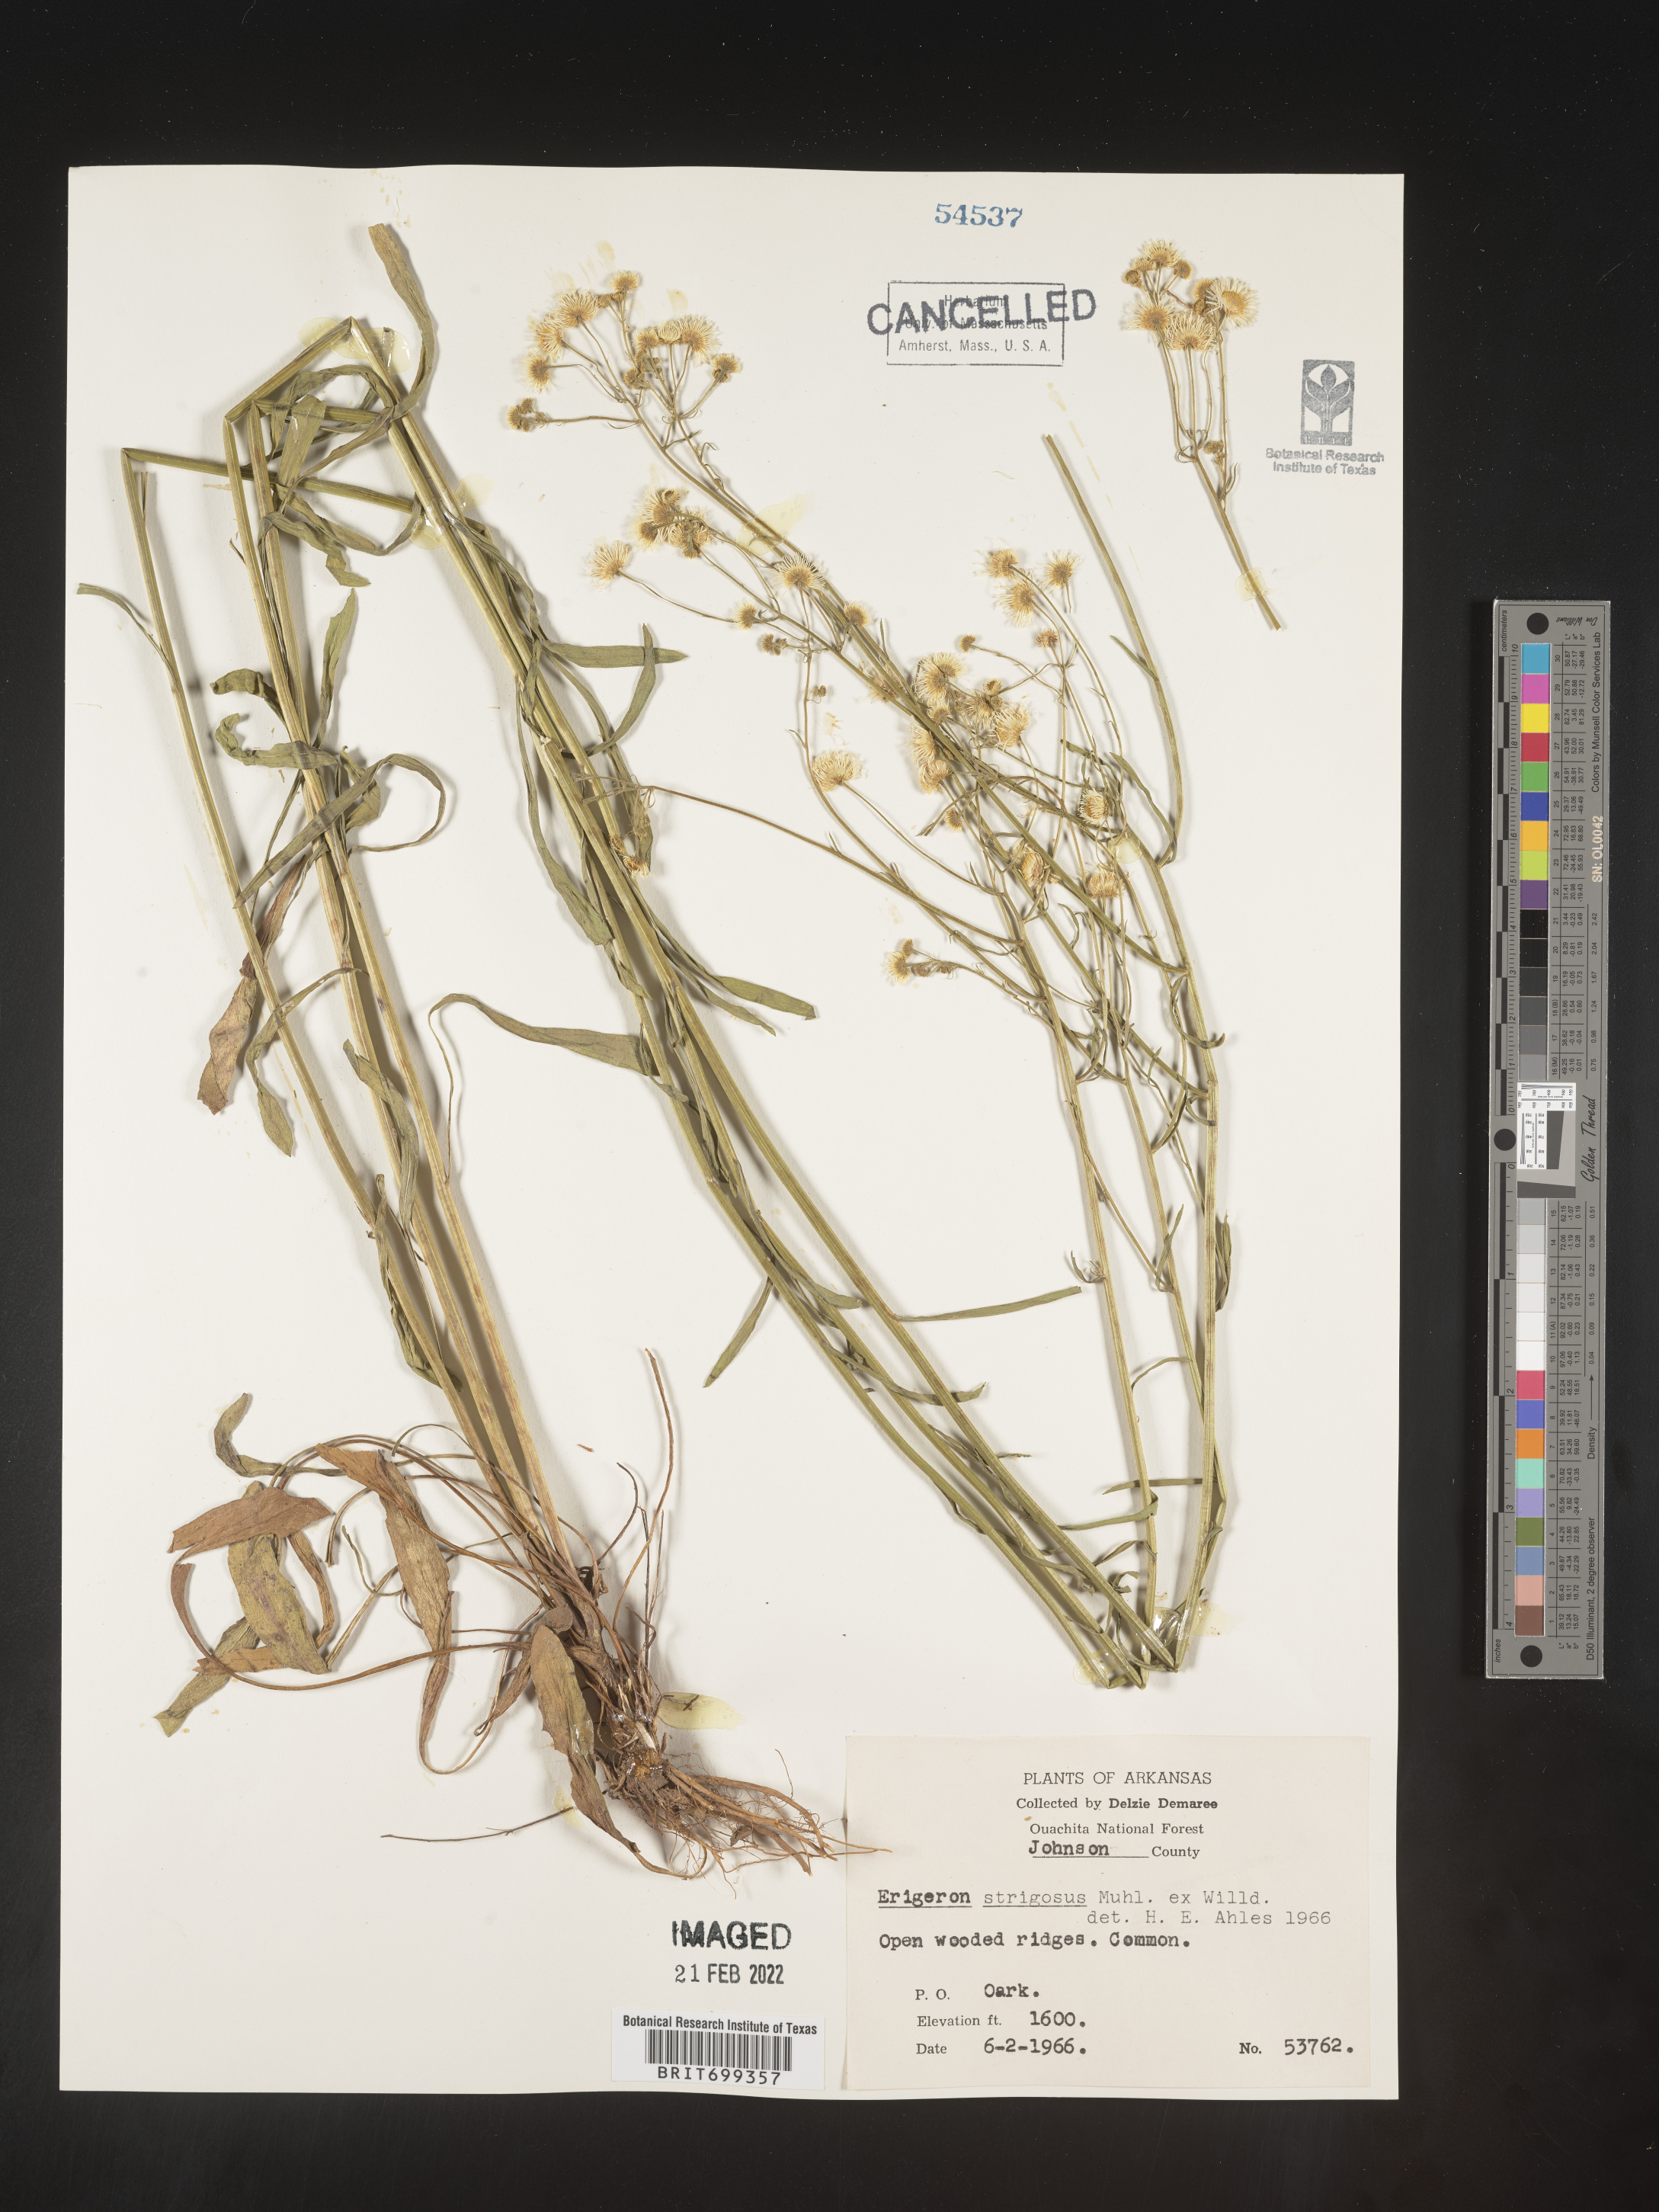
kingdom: Plantae
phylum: Tracheophyta
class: Magnoliopsida
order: Asterales
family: Asteraceae
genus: Erigeron
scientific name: Erigeron strigosus
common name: Common eastern fleabane
